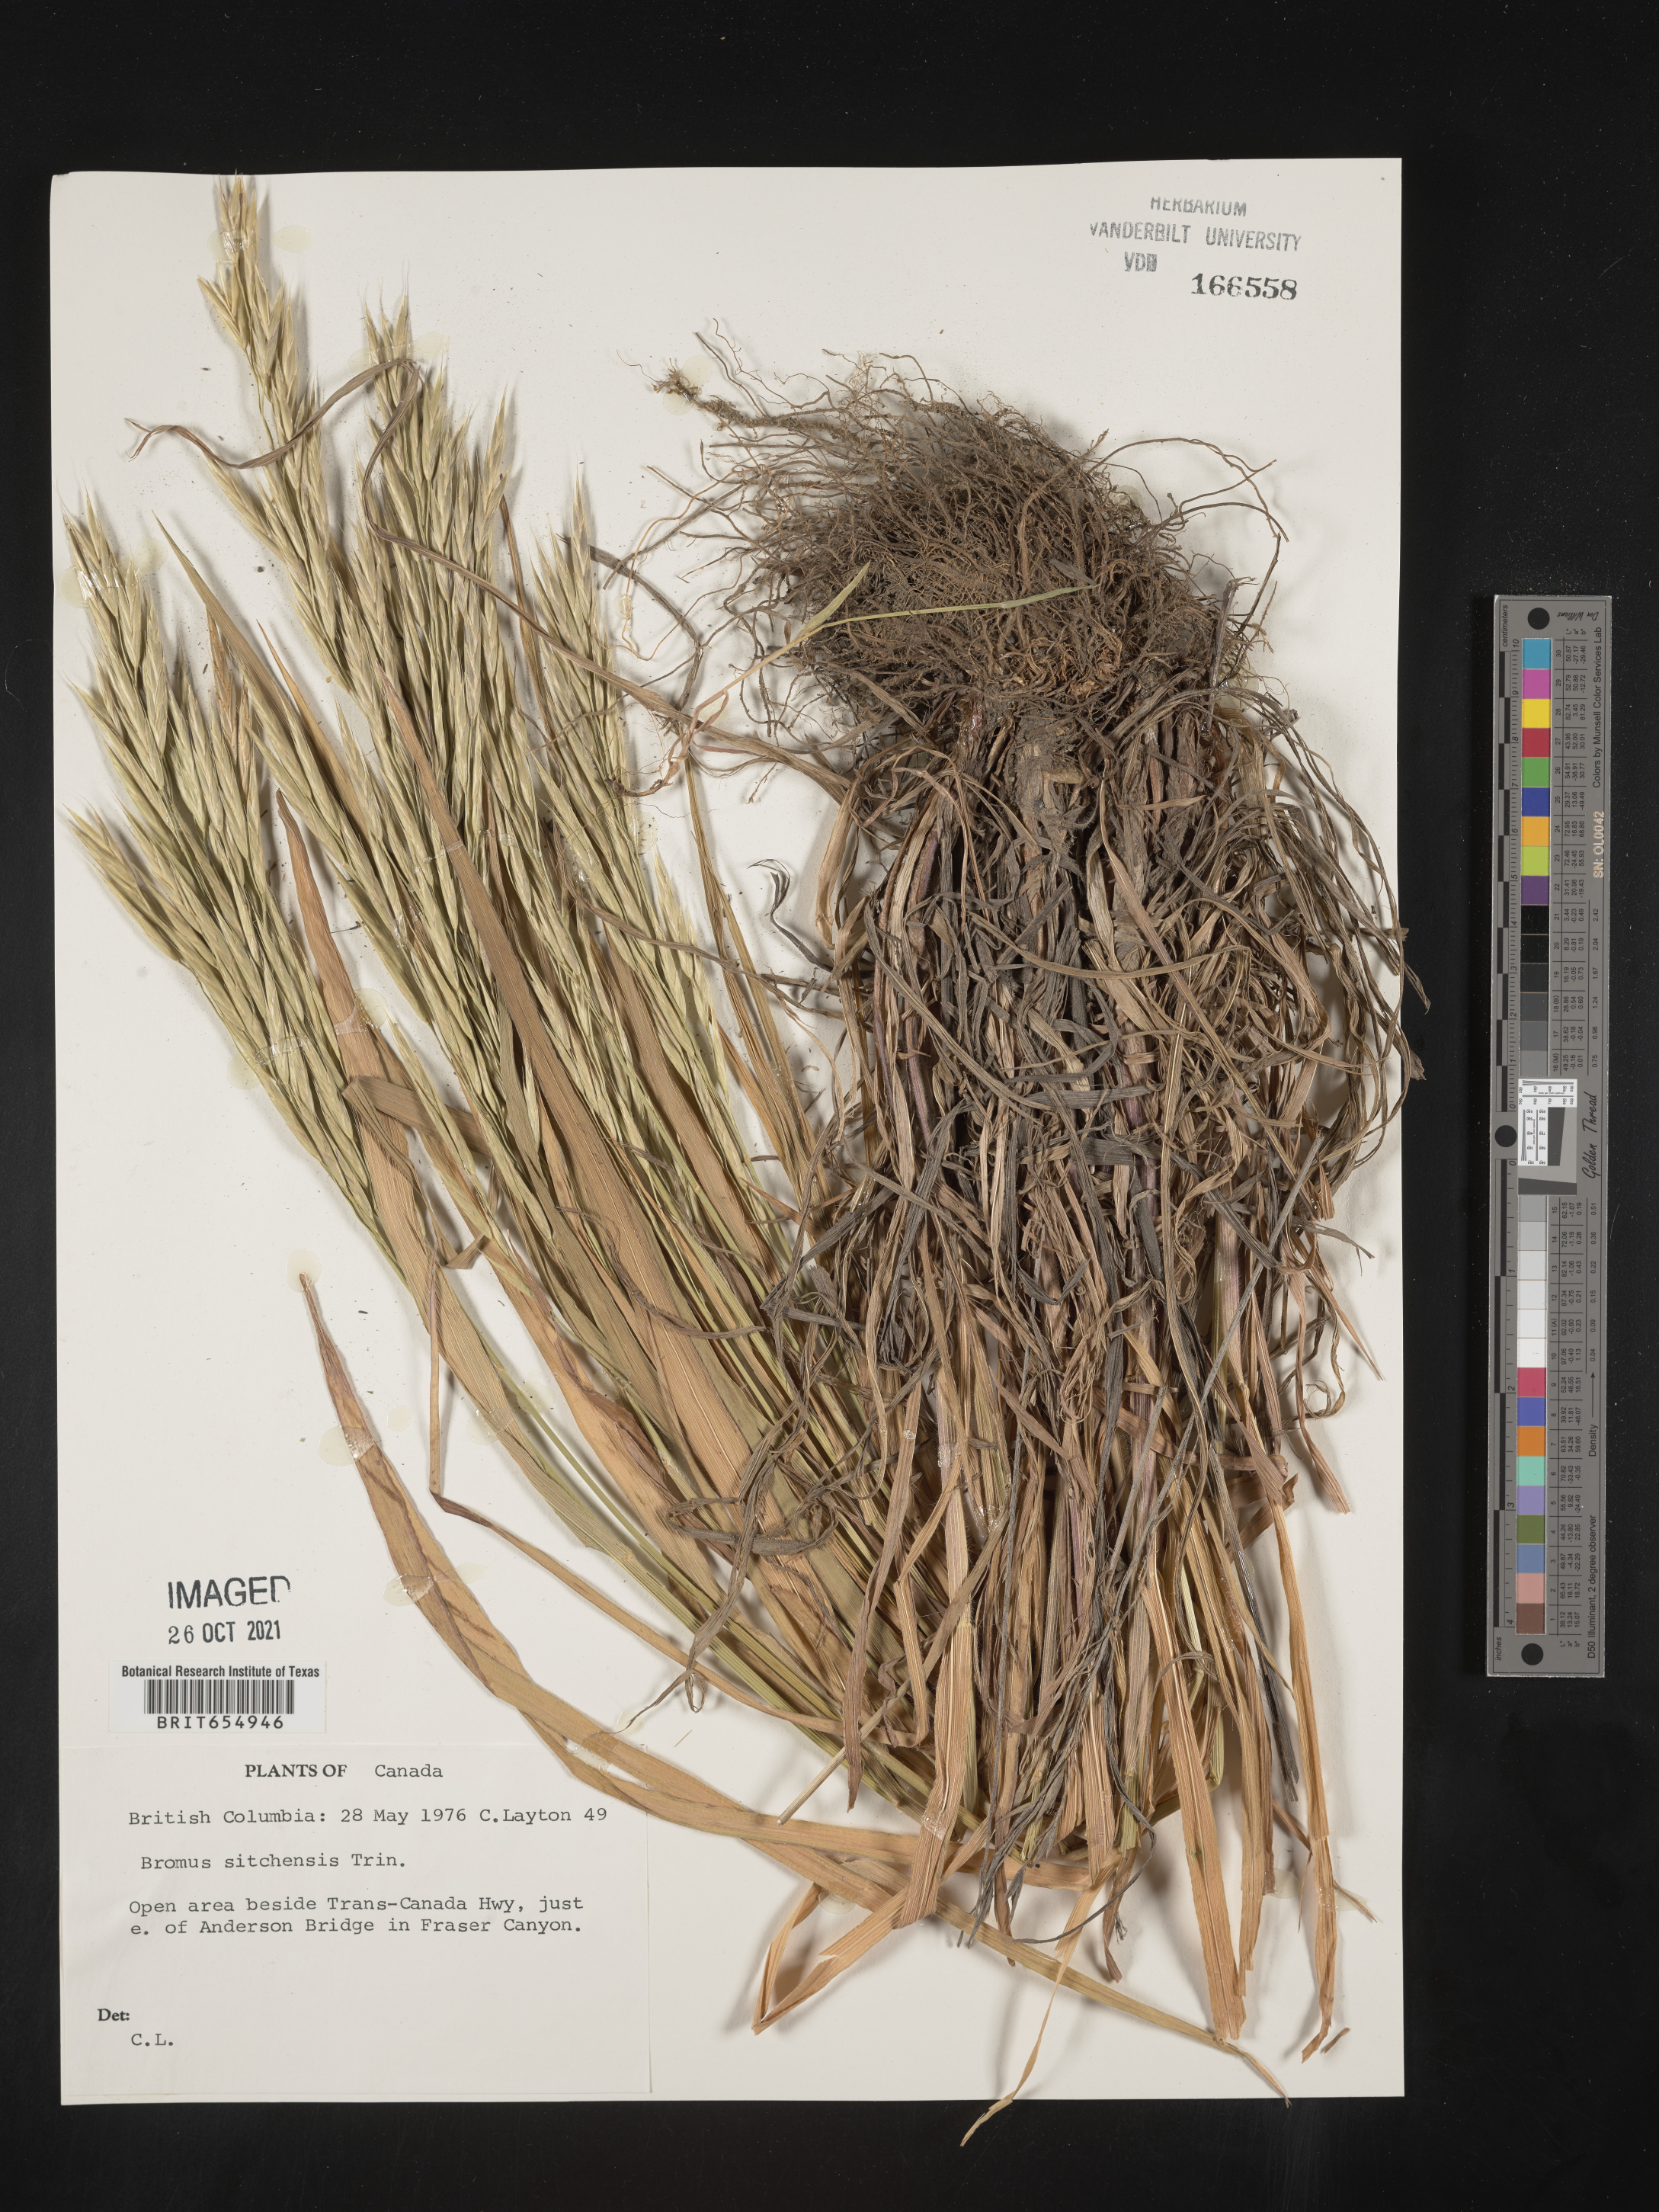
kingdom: Plantae
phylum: Tracheophyta
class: Liliopsida
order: Poales
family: Poaceae
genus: Bromus
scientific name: Bromus
